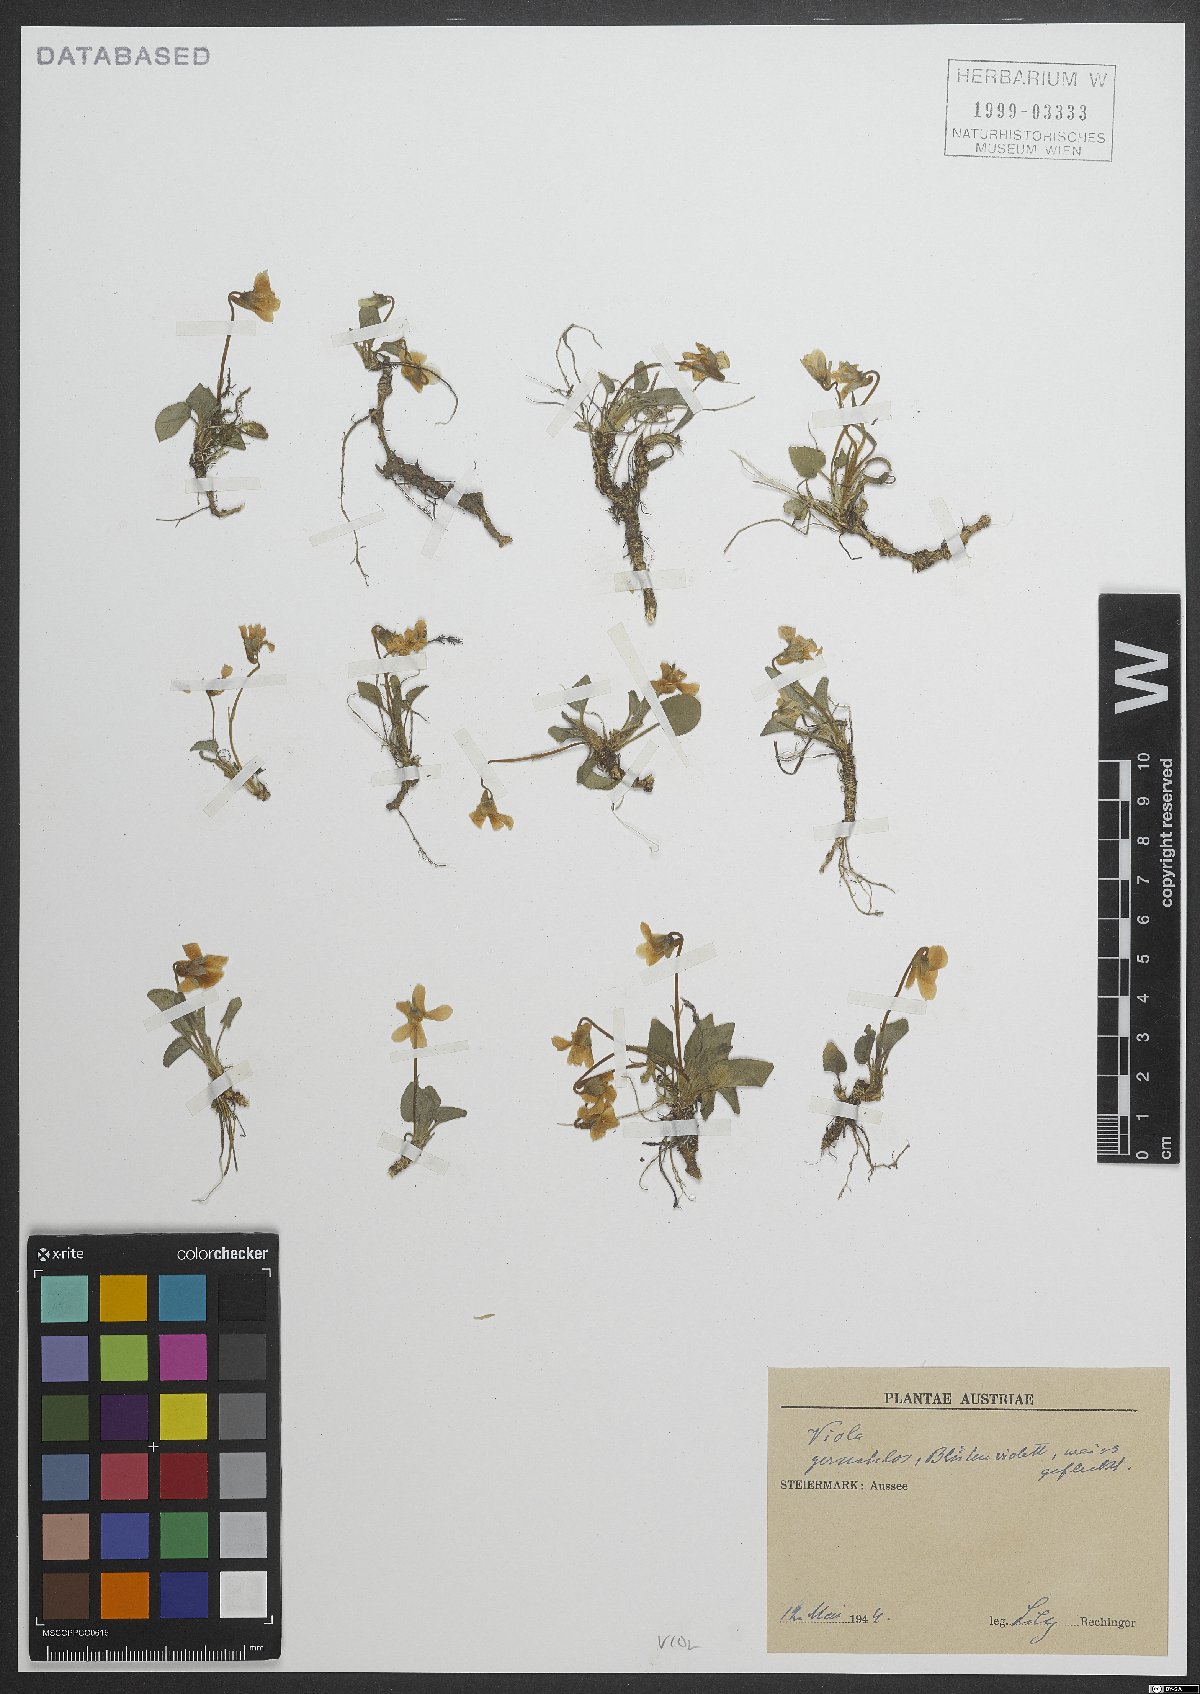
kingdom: Plantae
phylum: Tracheophyta
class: Magnoliopsida
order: Malpighiales
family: Violaceae
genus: Viola
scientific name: Viola
